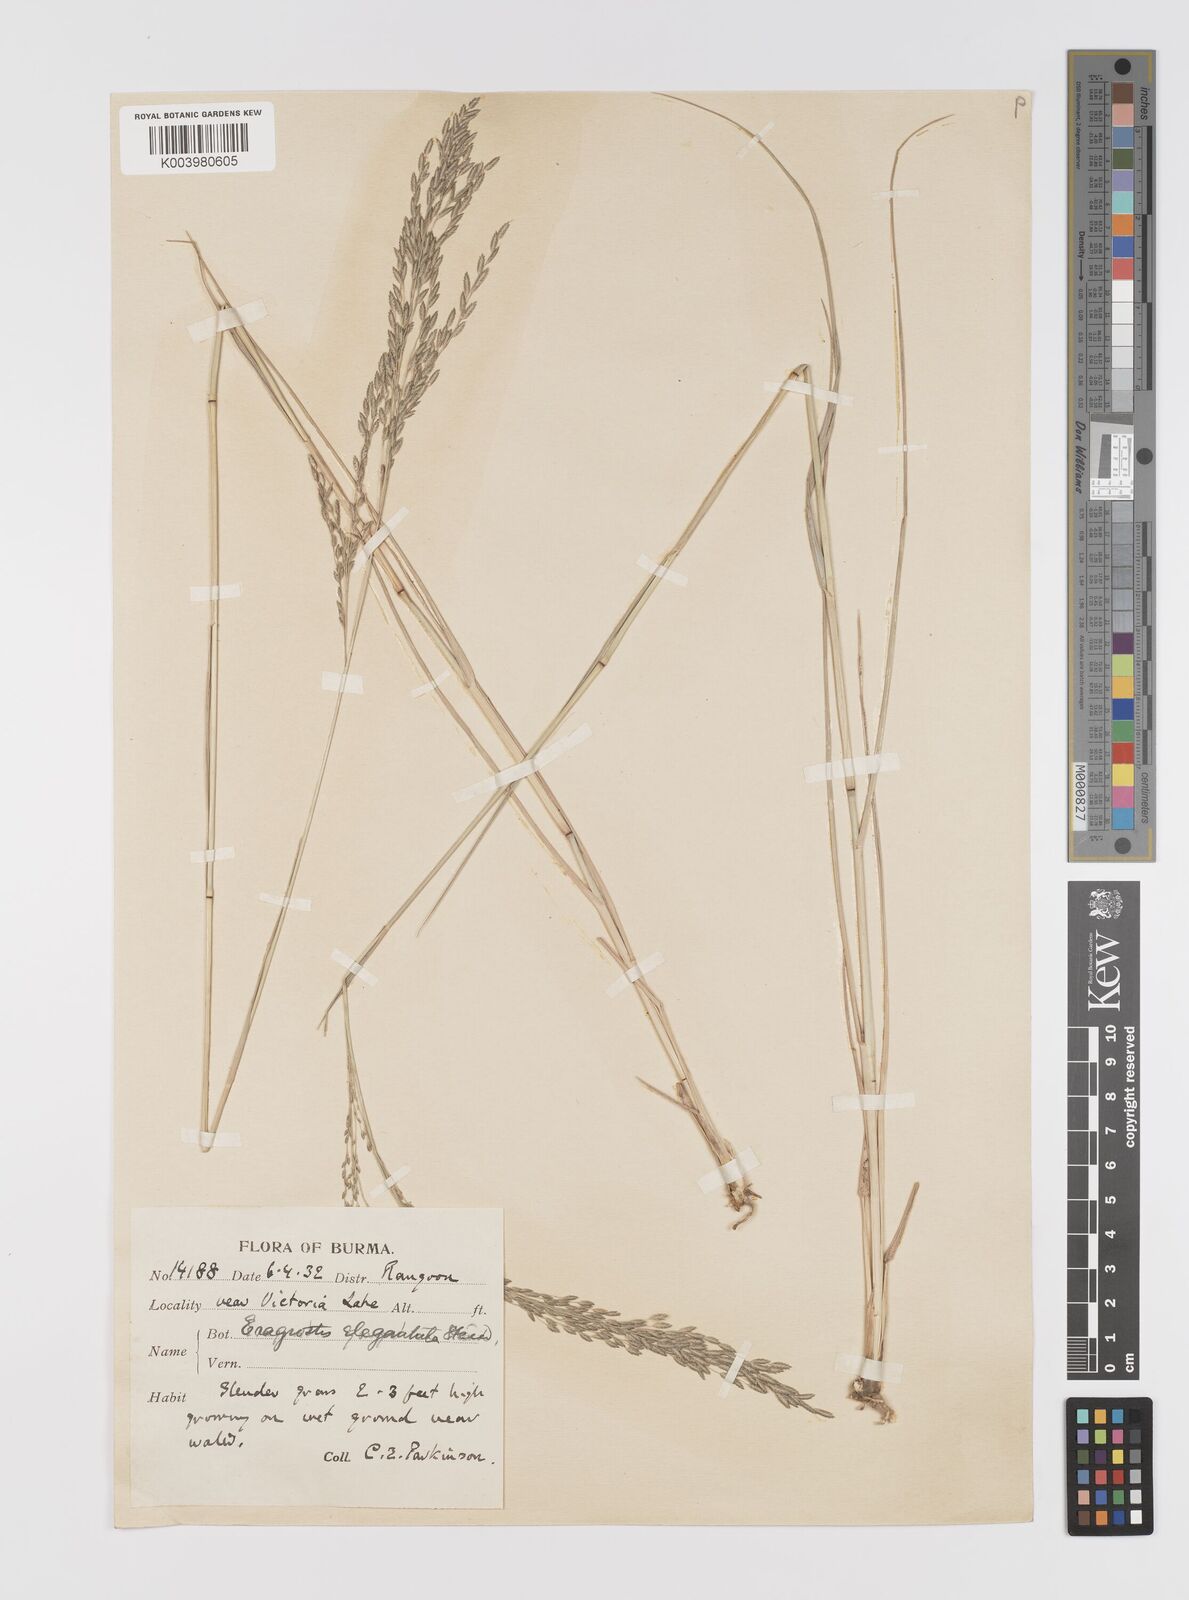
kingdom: Plantae
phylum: Tracheophyta
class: Liliopsida
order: Poales
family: Poaceae
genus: Eragrostis
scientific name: Eragrostis atrovirens
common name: Thalia lovegrass
